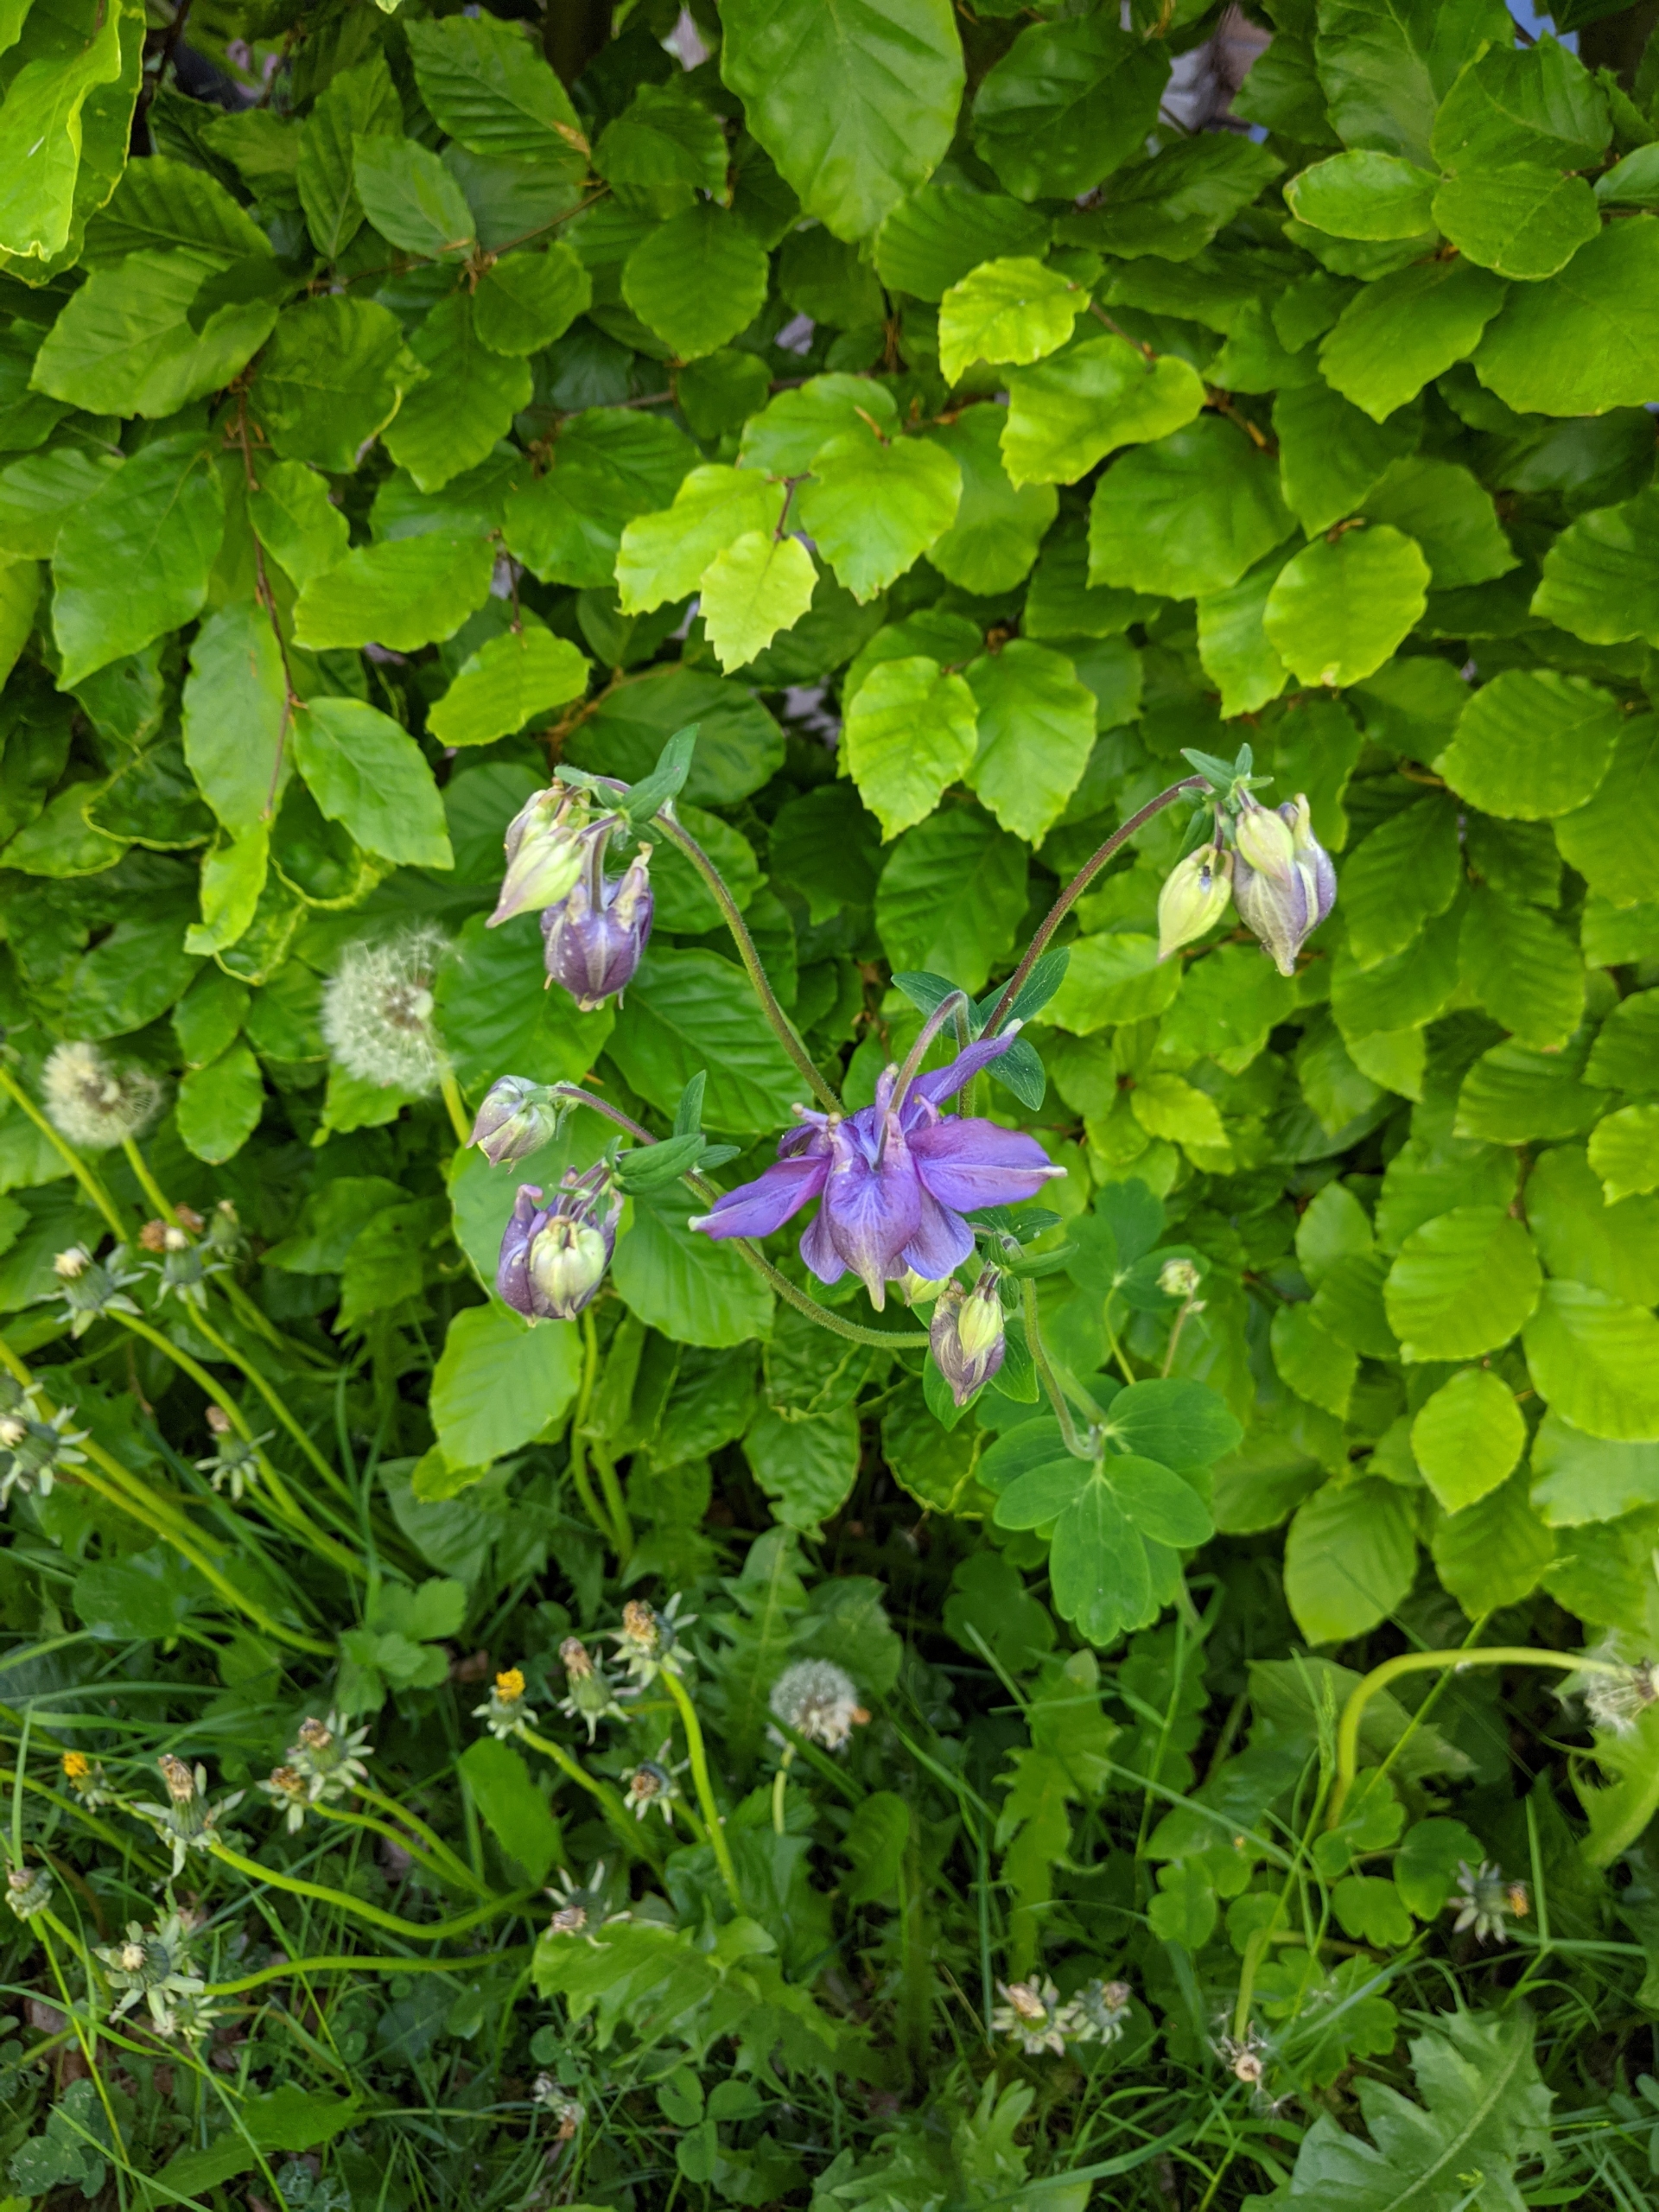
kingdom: Plantae
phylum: Tracheophyta
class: Magnoliopsida
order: Ranunculales
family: Ranunculaceae
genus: Aquilegia
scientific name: Aquilegia vulgaris
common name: Akeleje
